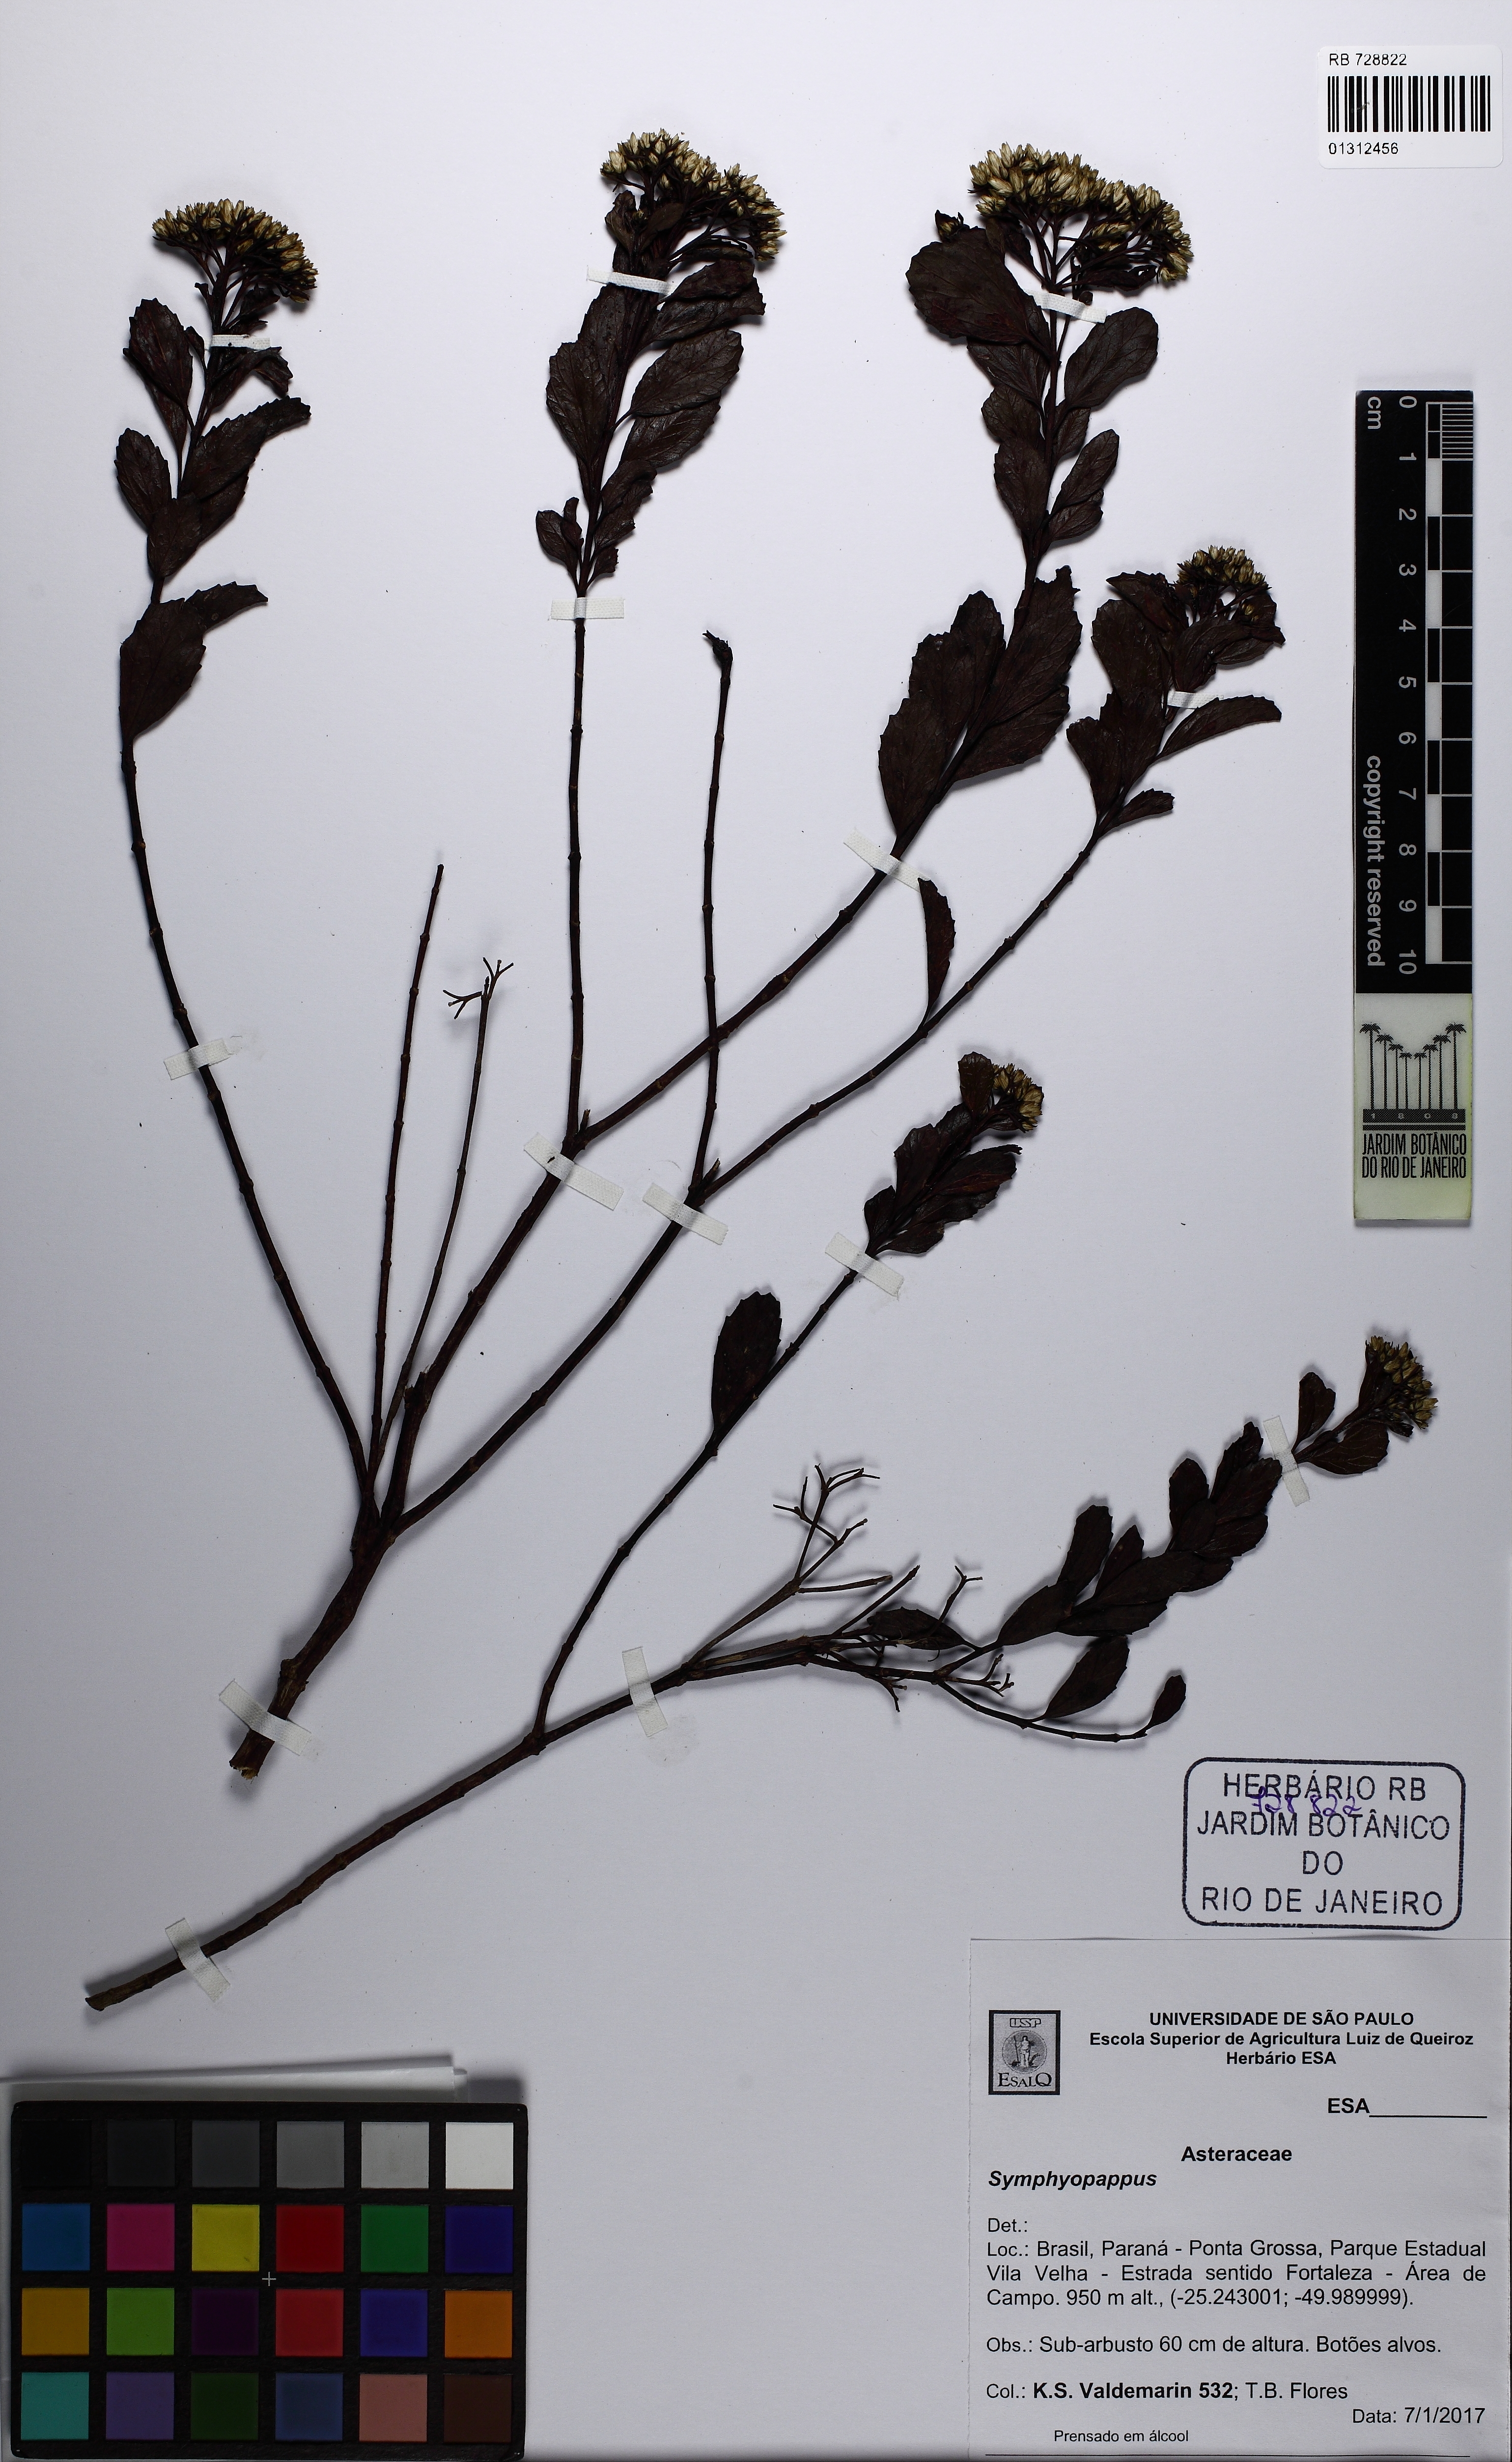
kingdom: Plantae
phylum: Tracheophyta
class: Magnoliopsida
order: Asterales
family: Asteraceae
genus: Symphyopappus
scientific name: Symphyopappus
